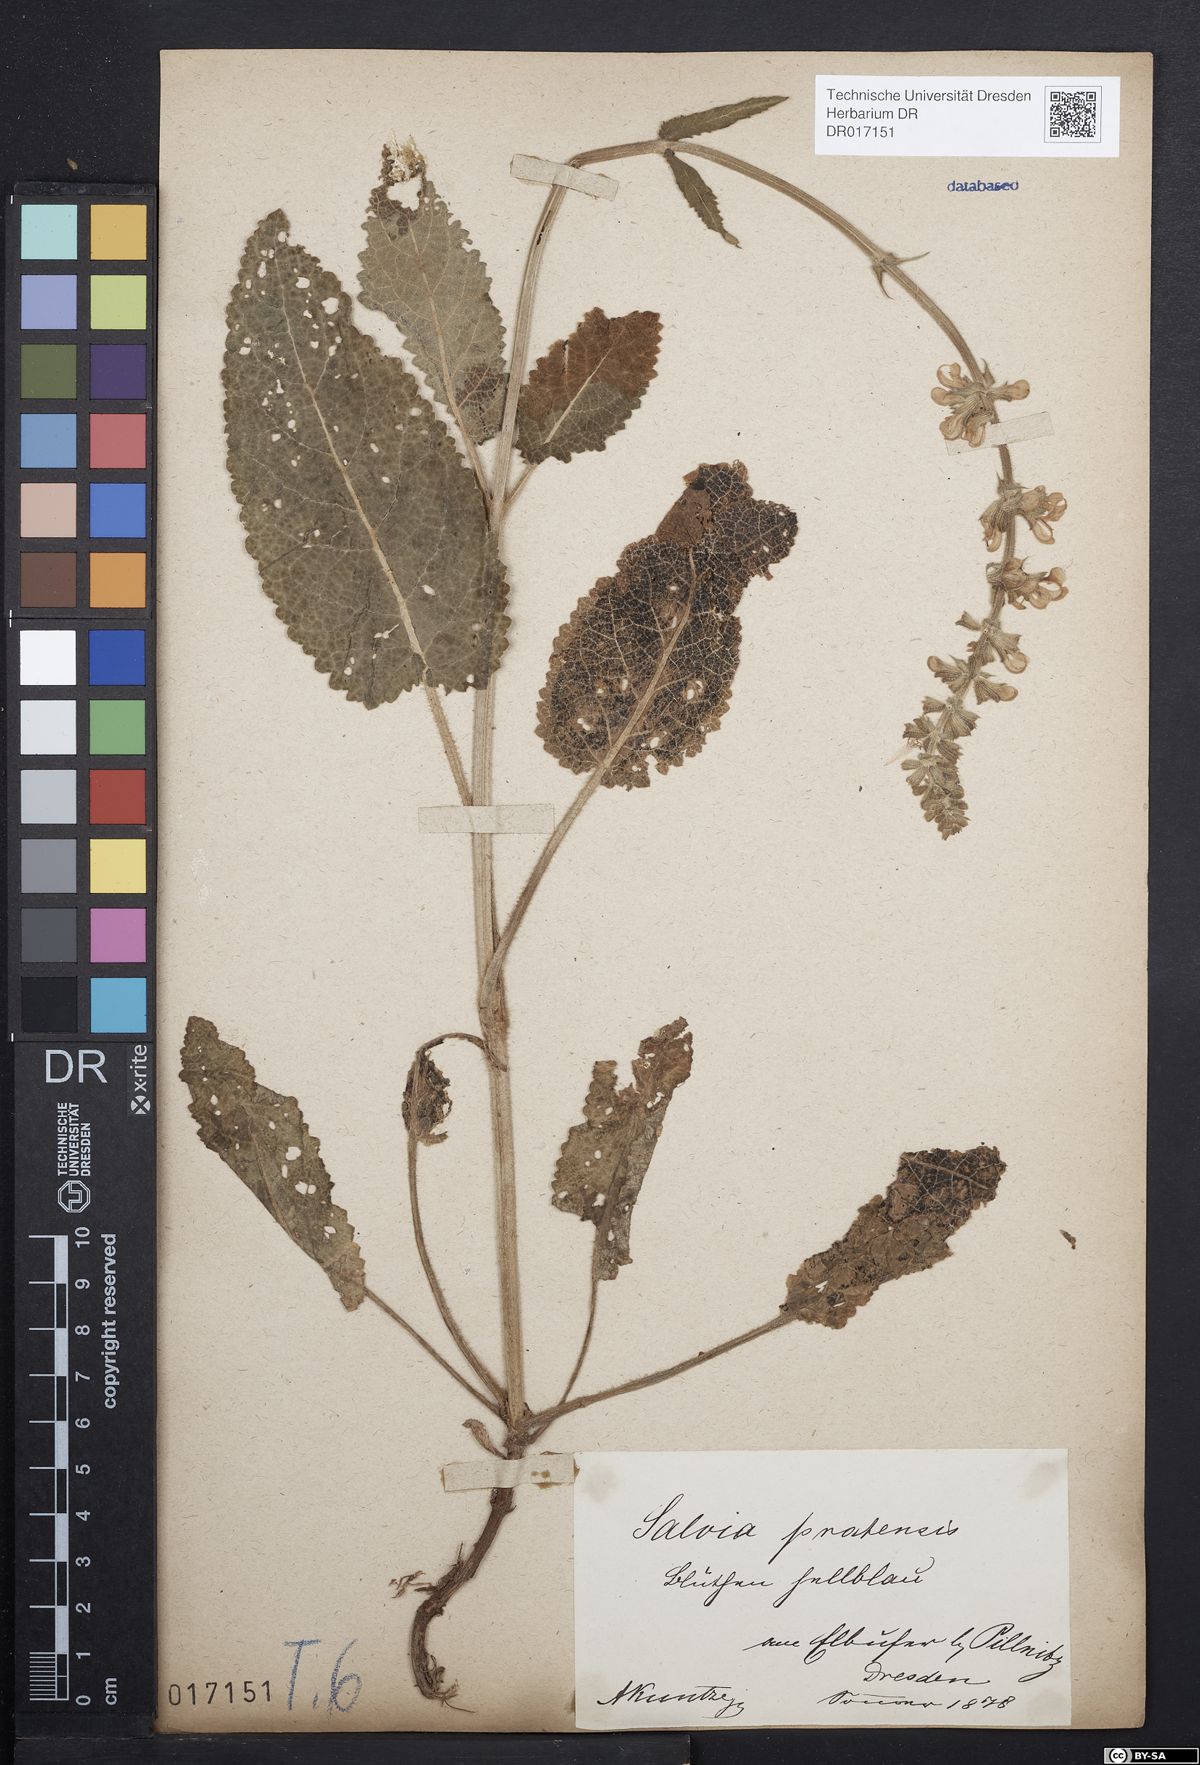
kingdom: Plantae
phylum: Tracheophyta
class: Magnoliopsida
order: Lamiales
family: Lamiaceae
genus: Salvia
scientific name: Salvia pratensis
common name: Meadow sage
